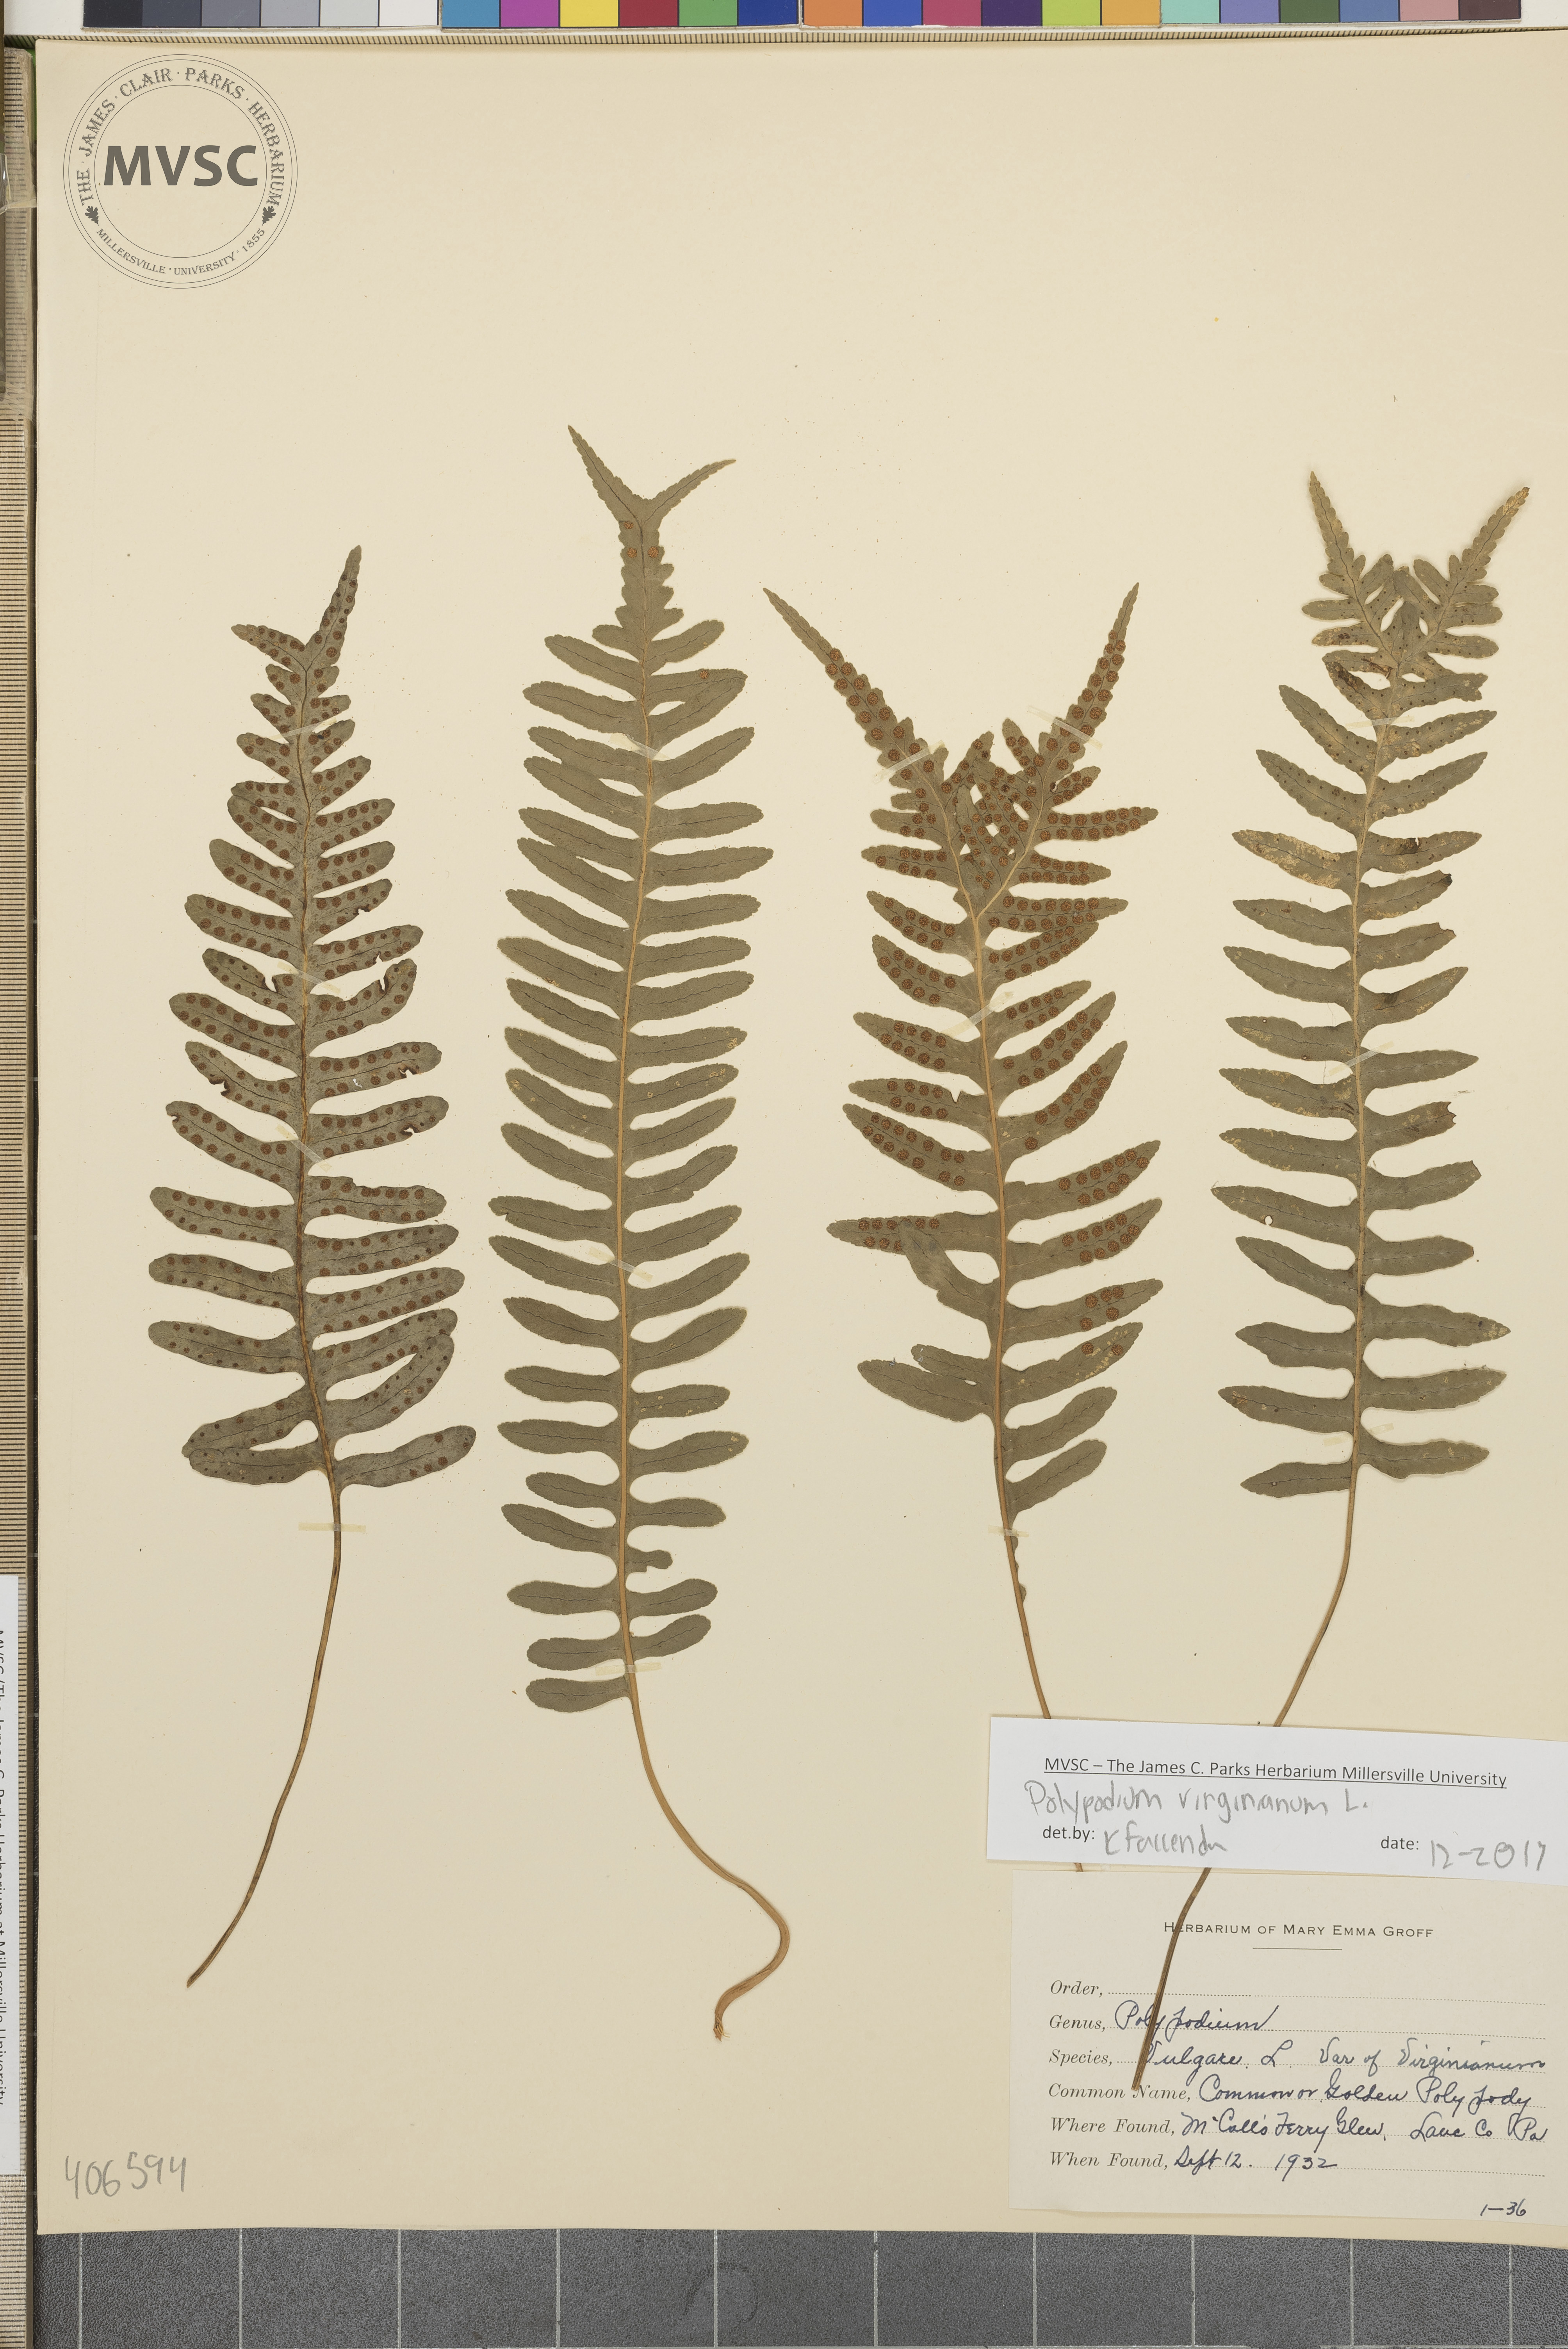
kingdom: Plantae
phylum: Tracheophyta
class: Polypodiopsida
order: Polypodiales
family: Polypodiaceae
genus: Polypodium
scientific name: Polypodium virginianum
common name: American wall fern
